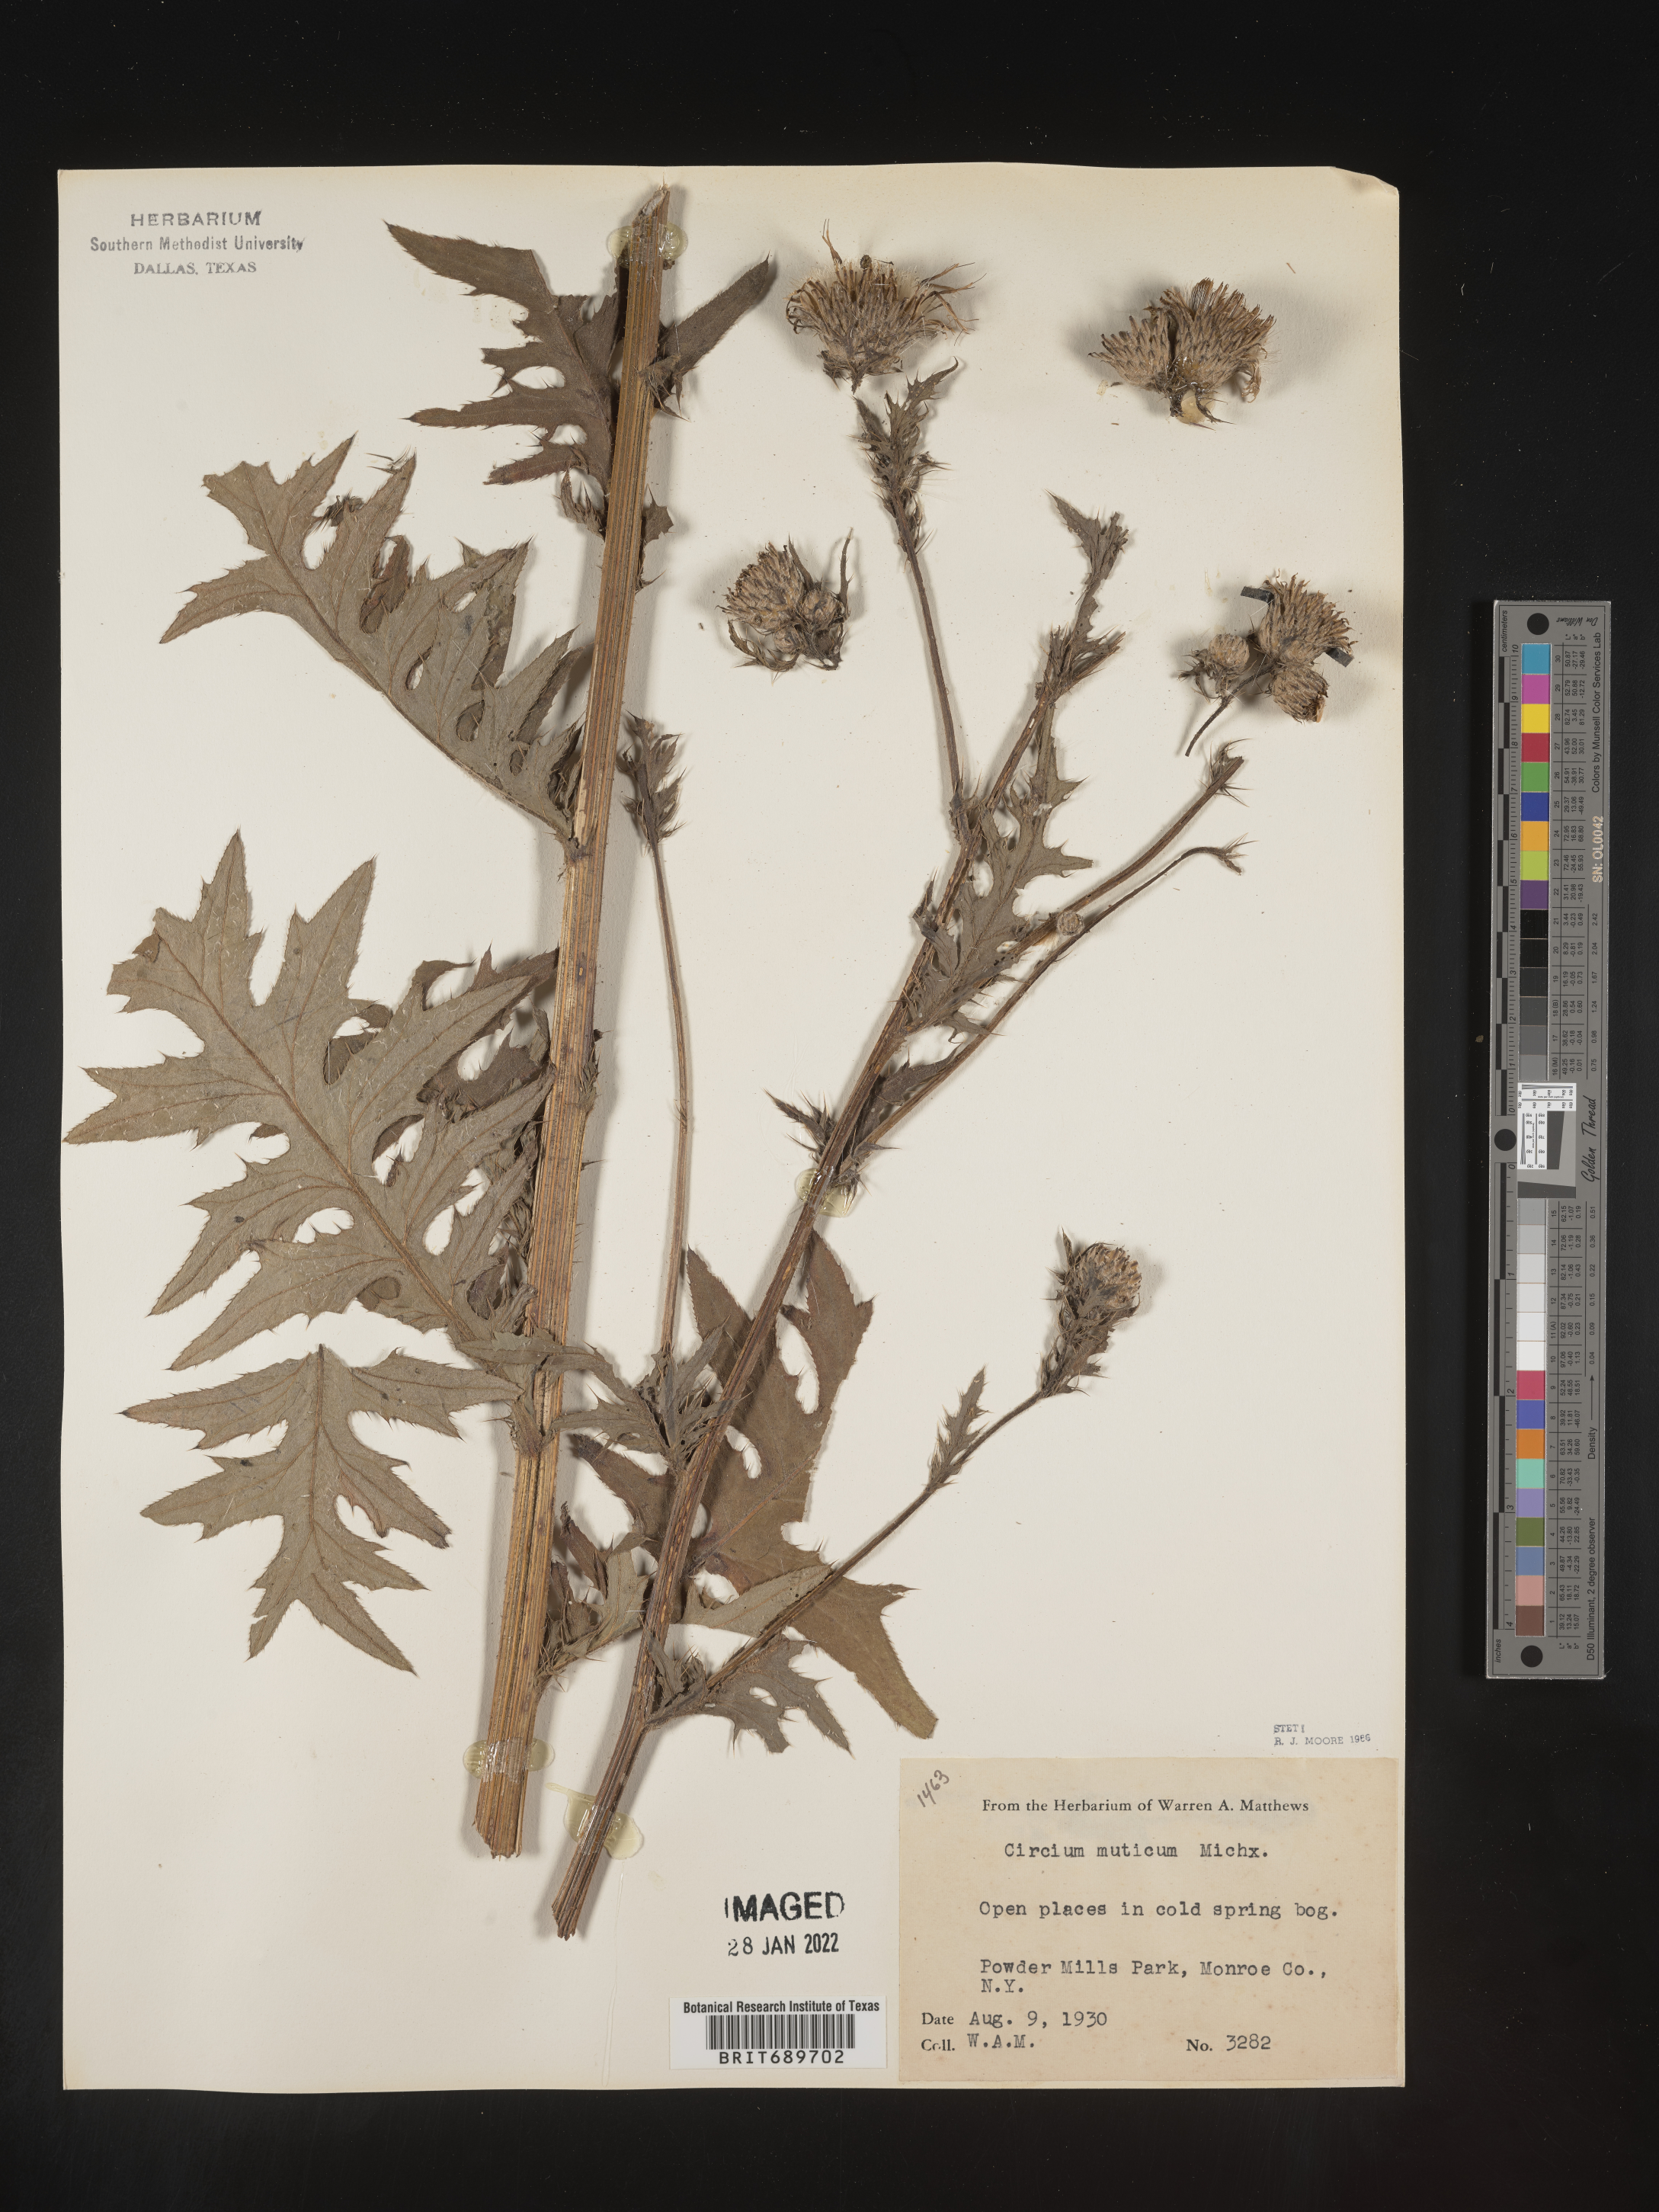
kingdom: Plantae
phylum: Tracheophyta
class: Magnoliopsida
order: Asterales
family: Asteraceae
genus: Cirsium
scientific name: Cirsium muticum
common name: Dunce-nettle
